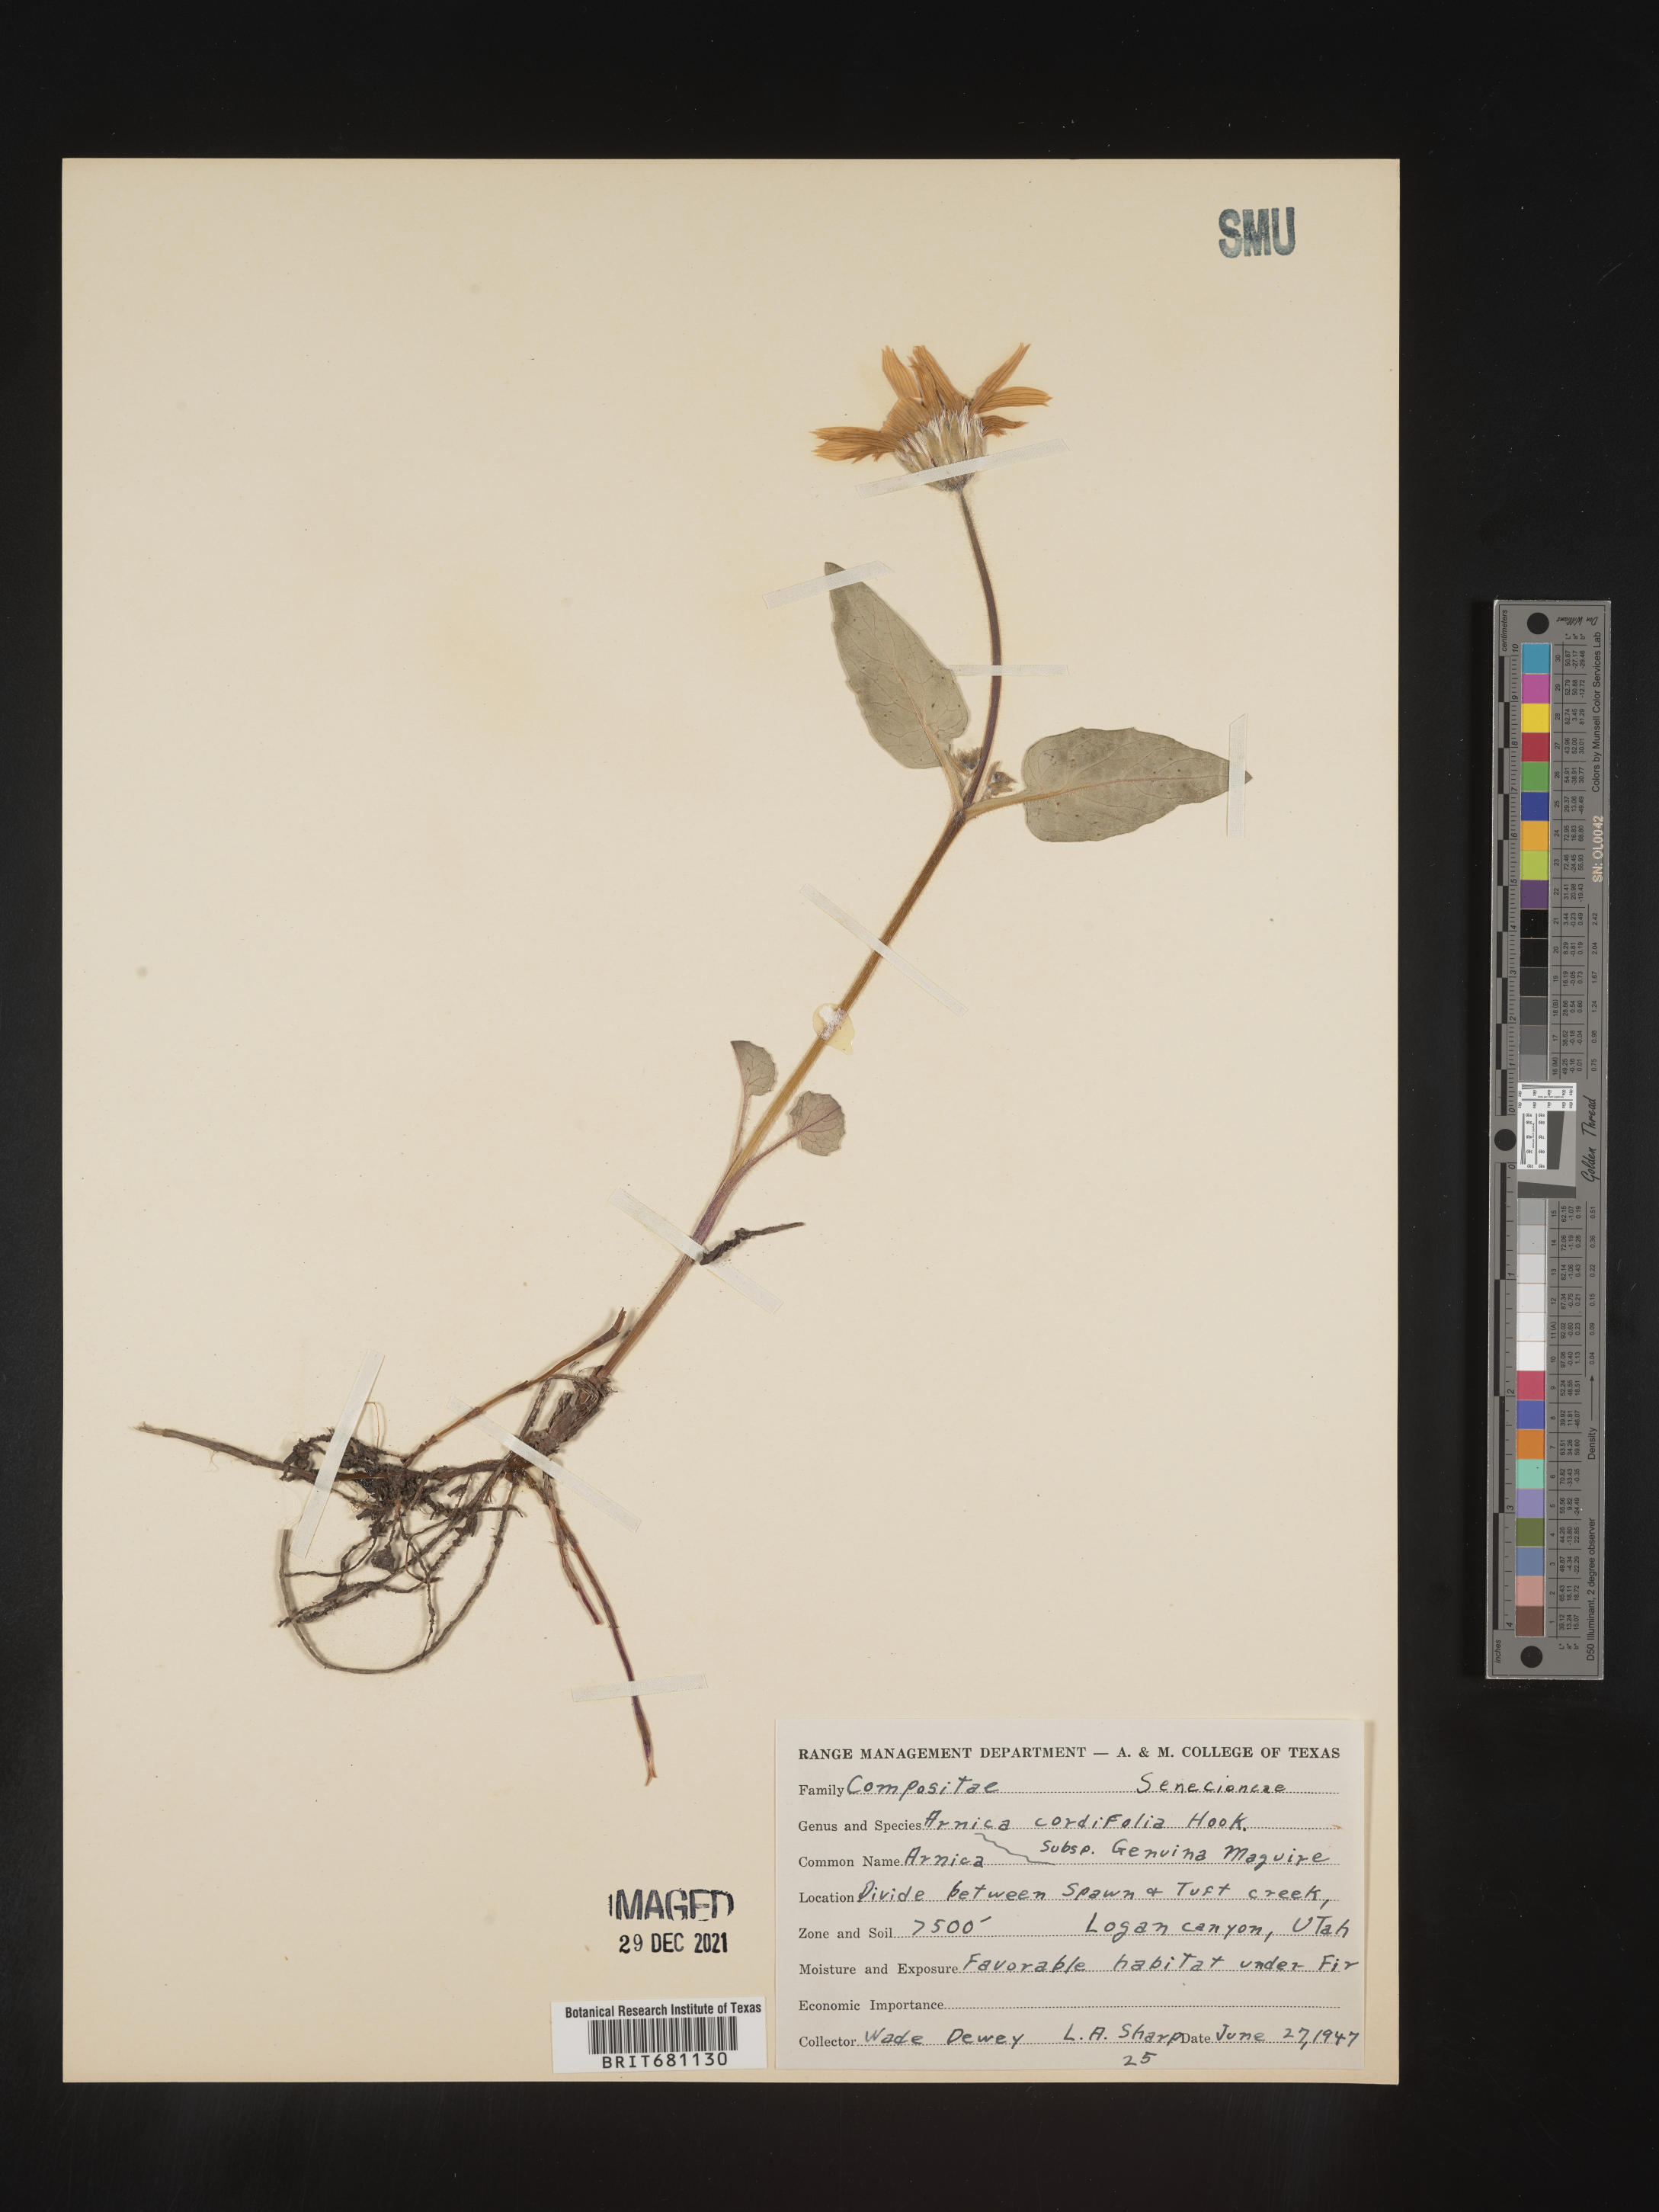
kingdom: Plantae
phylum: Tracheophyta
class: Magnoliopsida
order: Asterales
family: Asteraceae
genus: Arnica
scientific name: Arnica cordifolia
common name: Heart-leaf arnica
